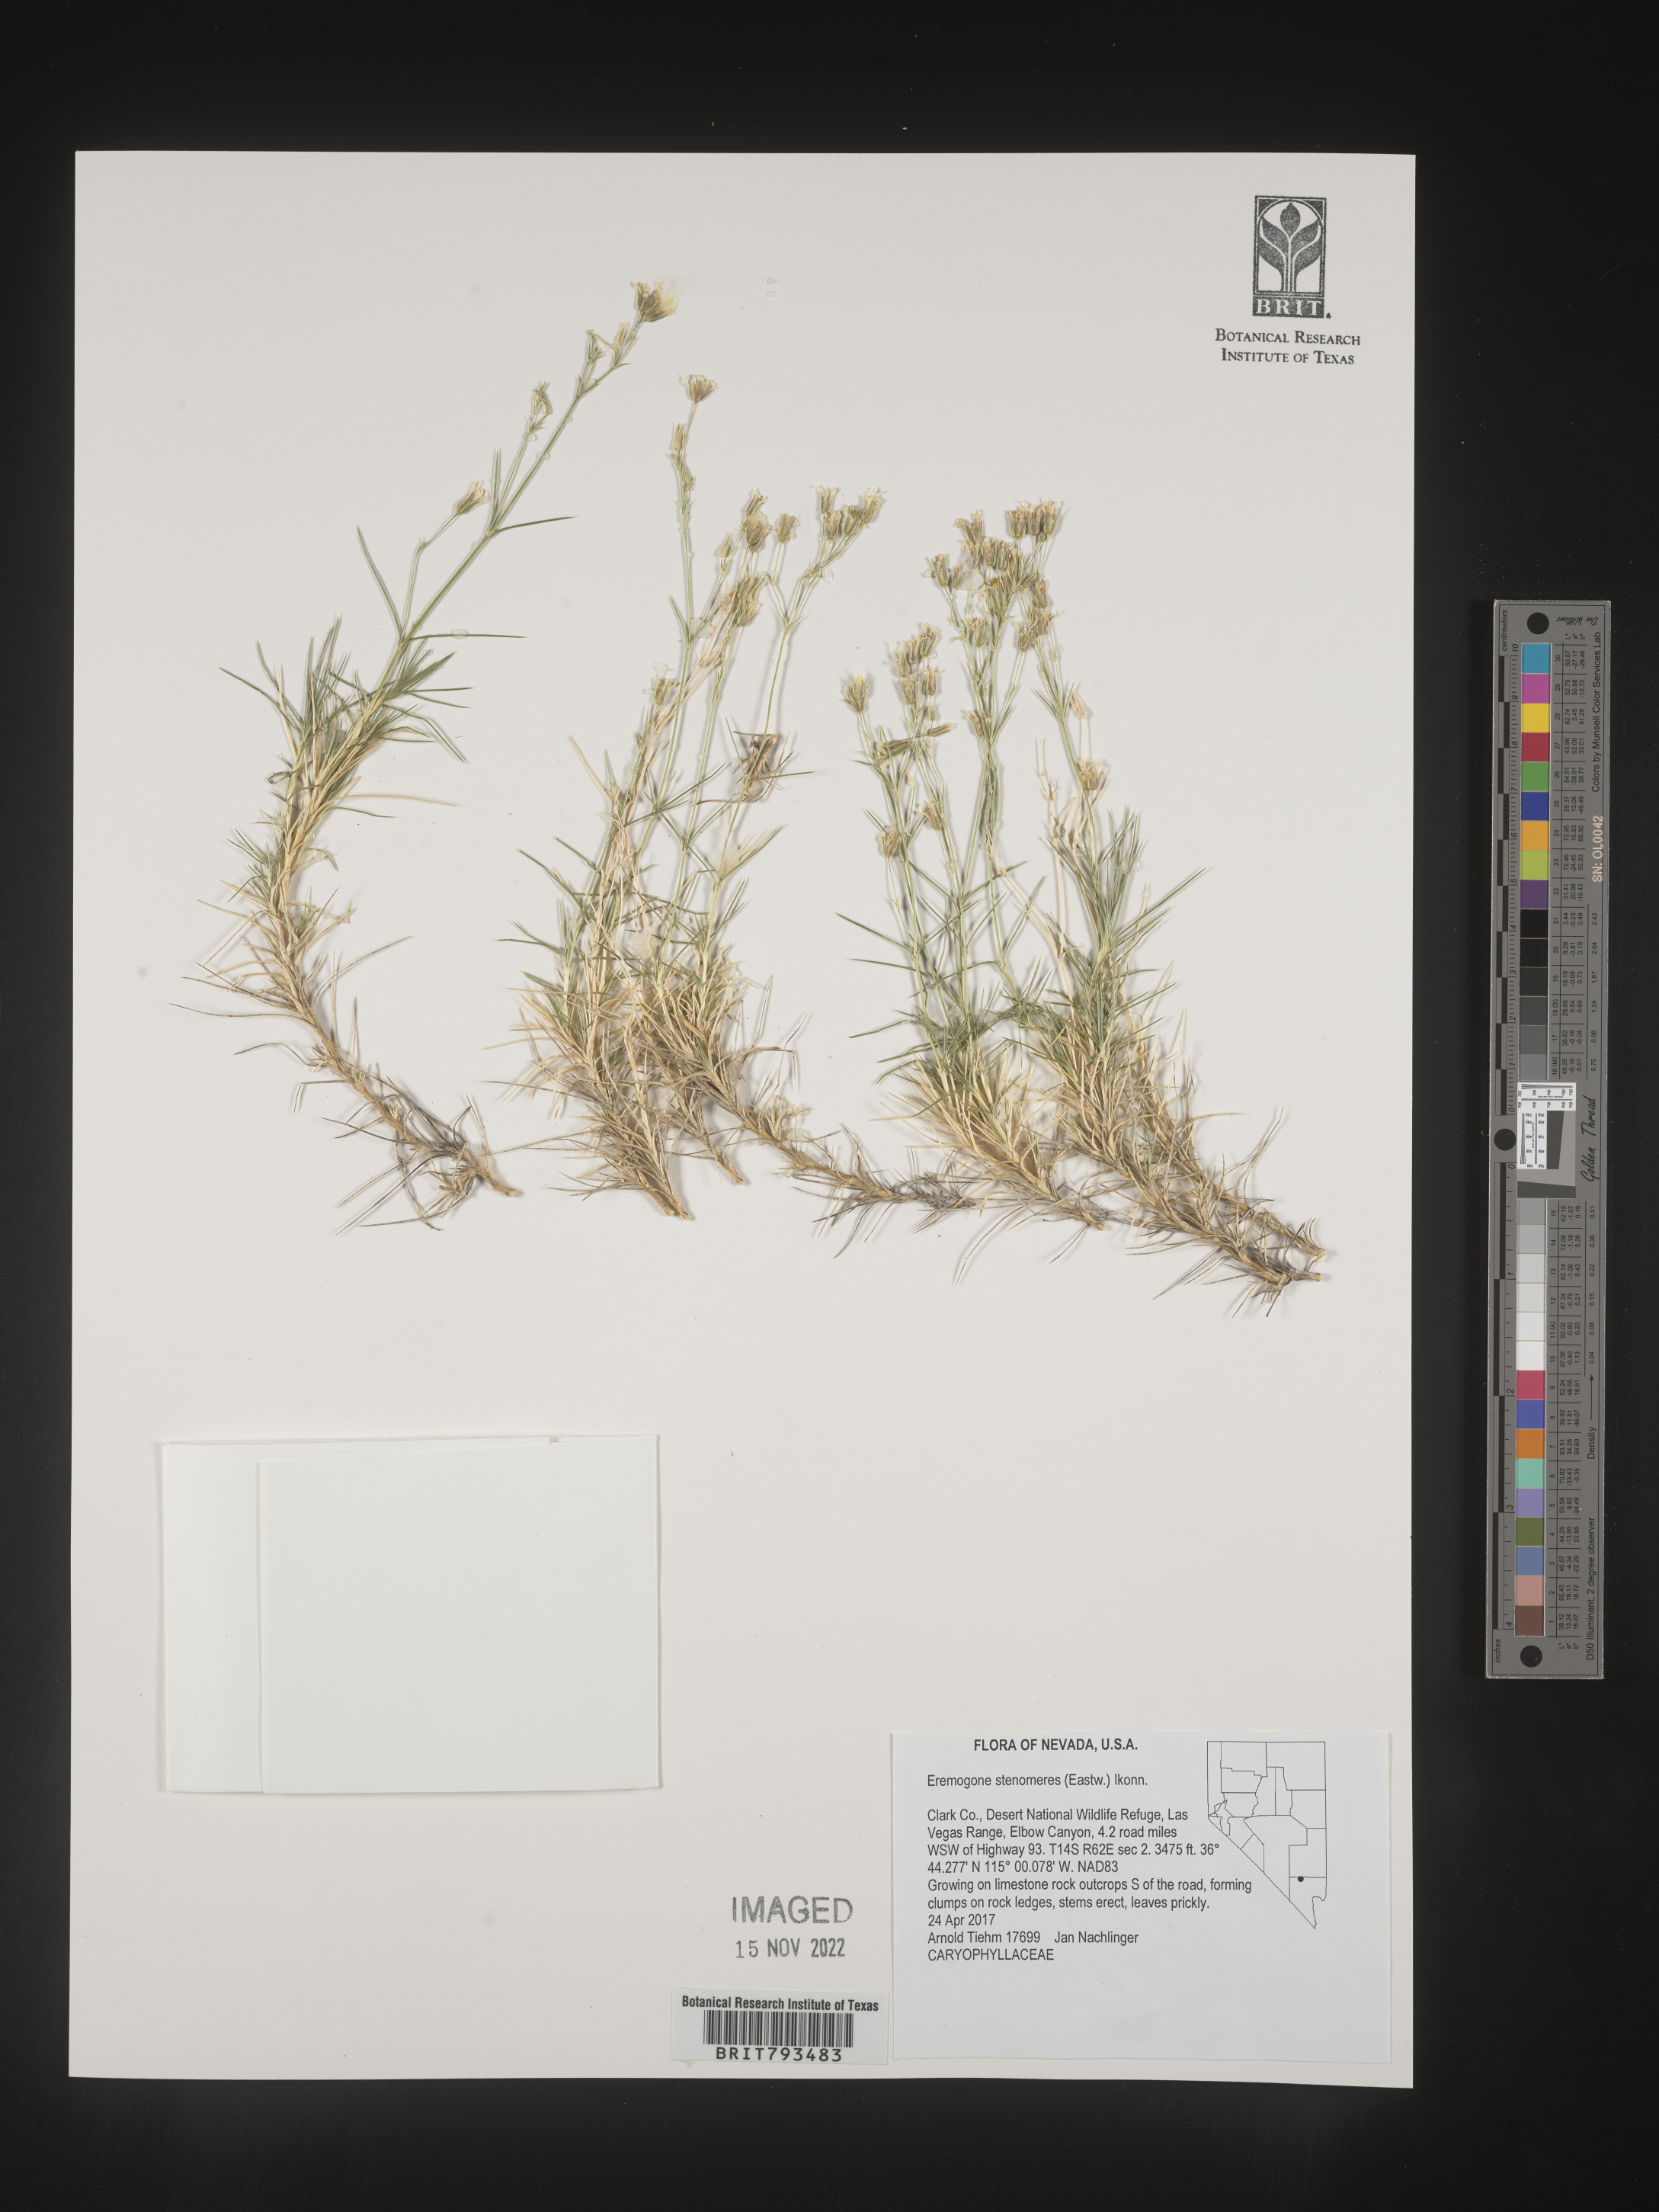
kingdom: Plantae
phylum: Tracheophyta
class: Magnoliopsida
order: Caryophyllales
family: Caryophyllaceae
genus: Eremogone
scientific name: Eremogone stenomeres
